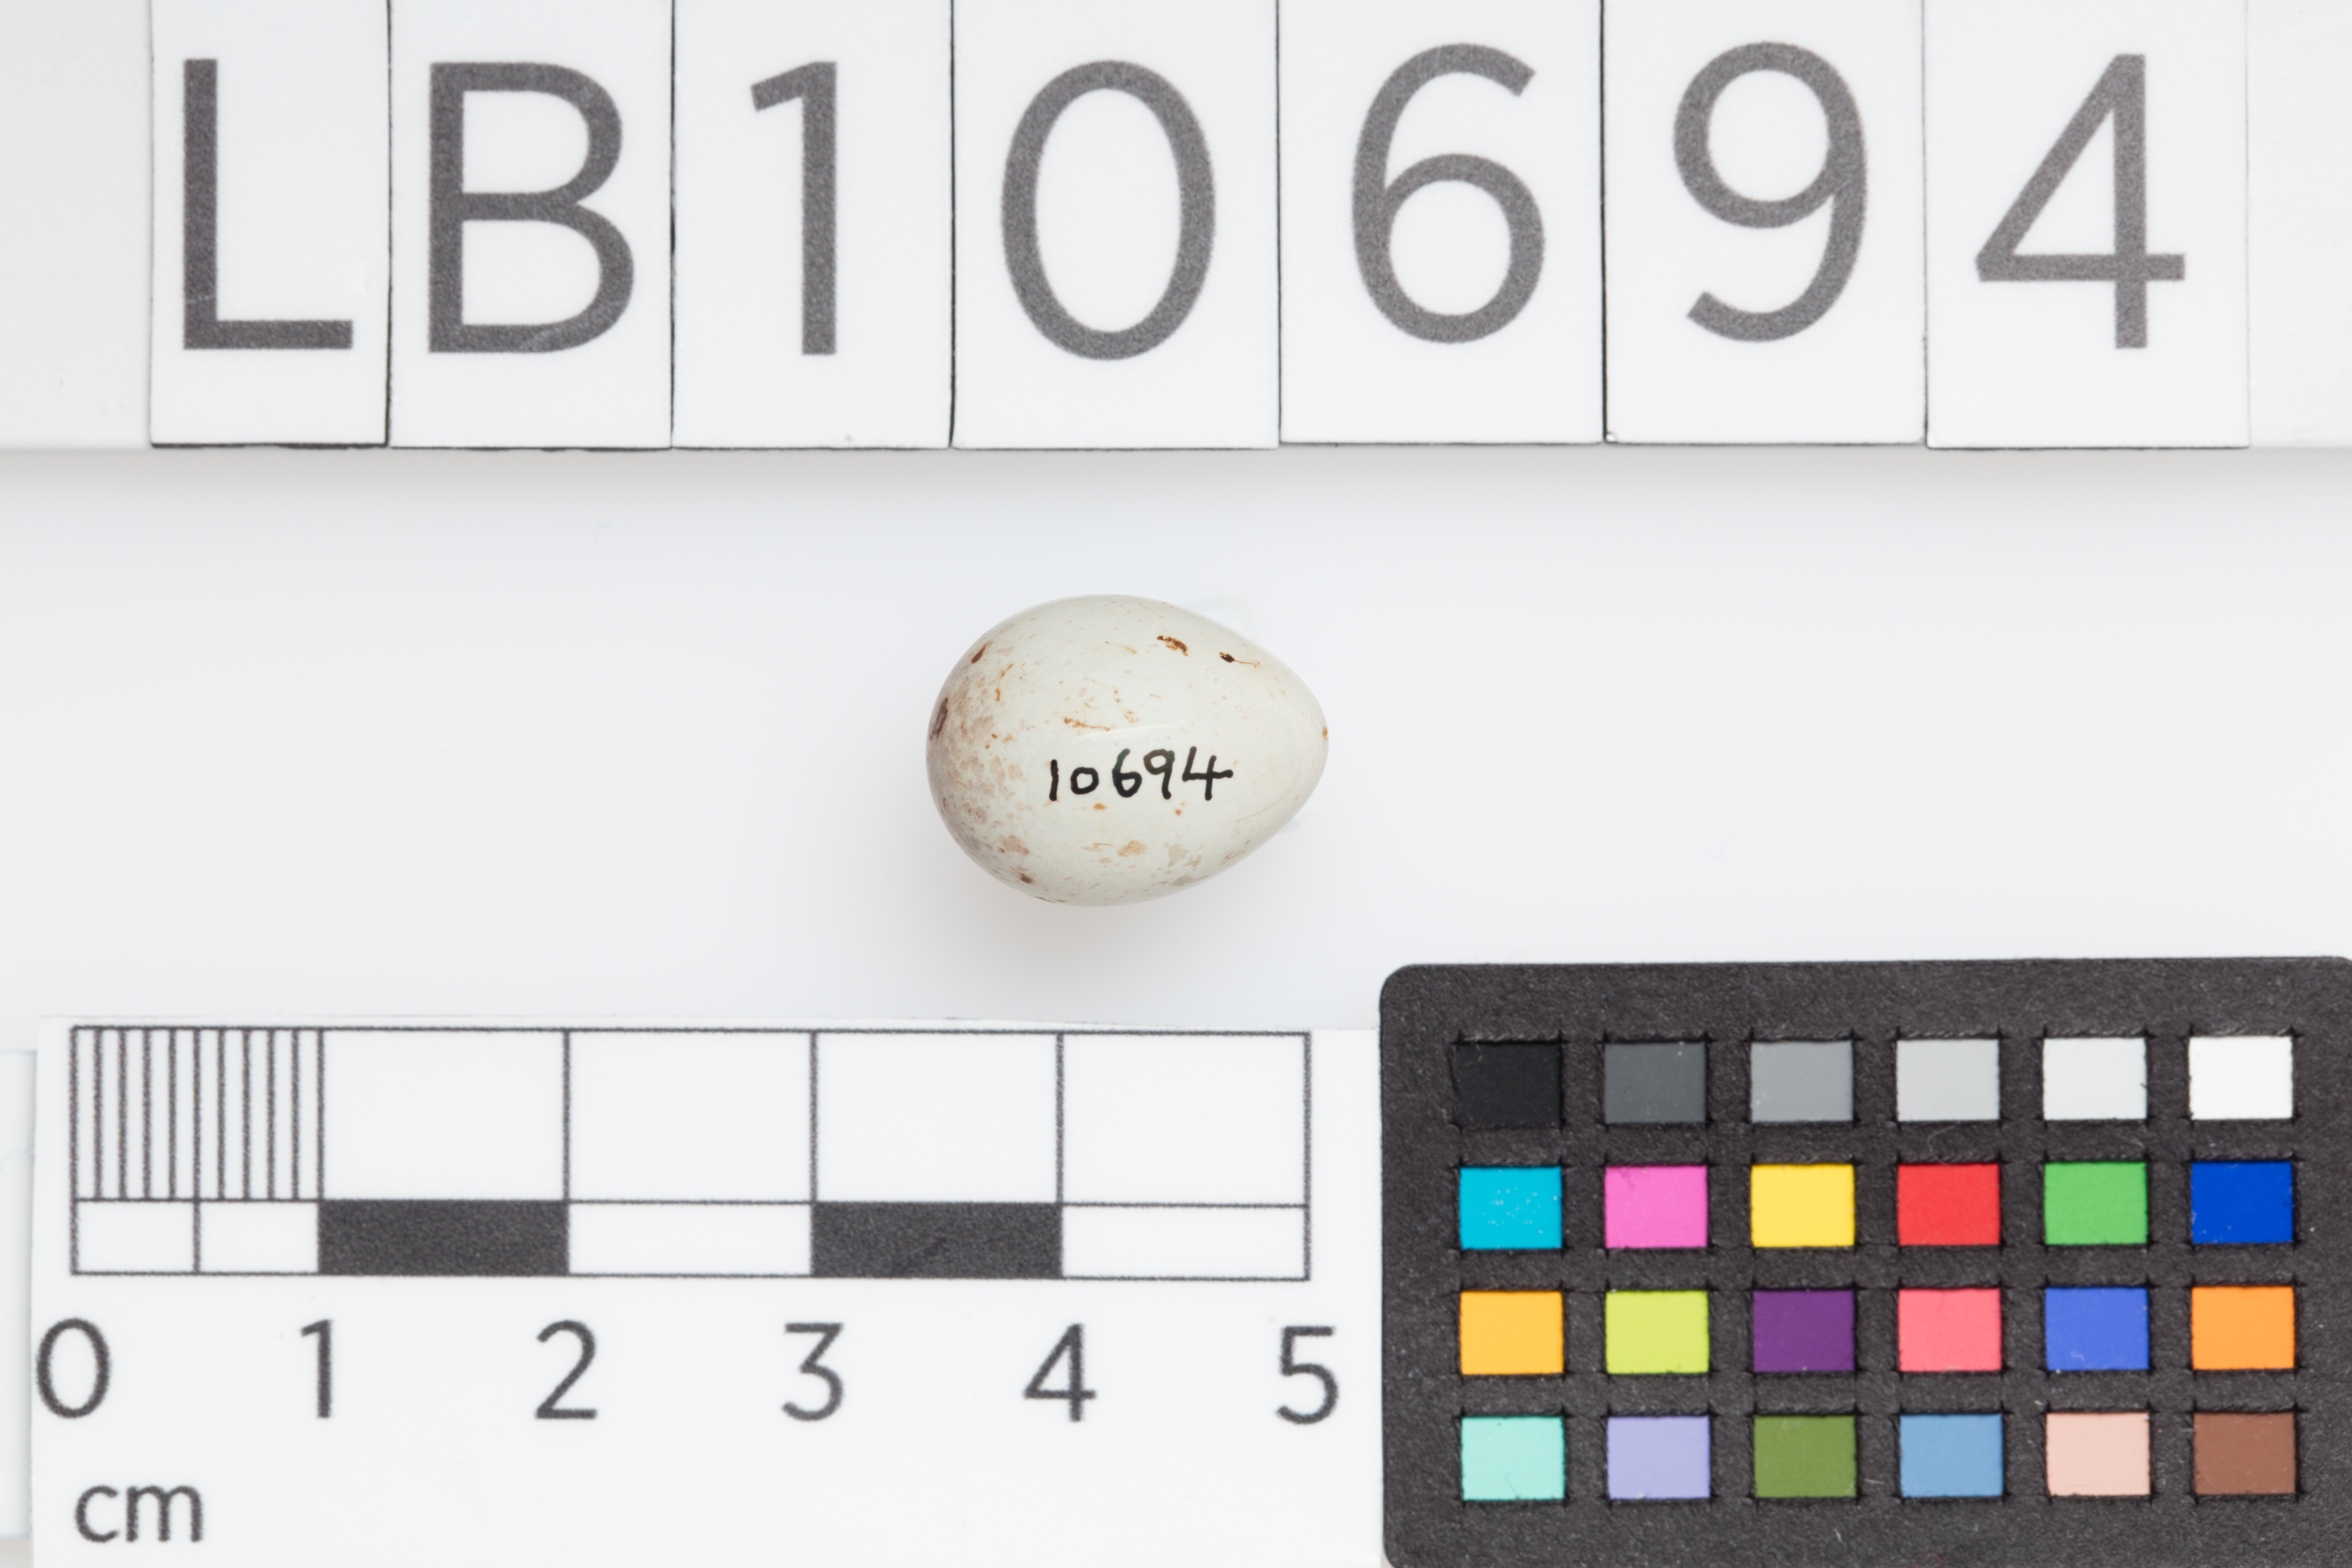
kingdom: Animalia
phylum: Chordata
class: Aves
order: Passeriformes
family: Fringillidae
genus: Acanthis
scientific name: Acanthis flammea
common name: Common redpoll
